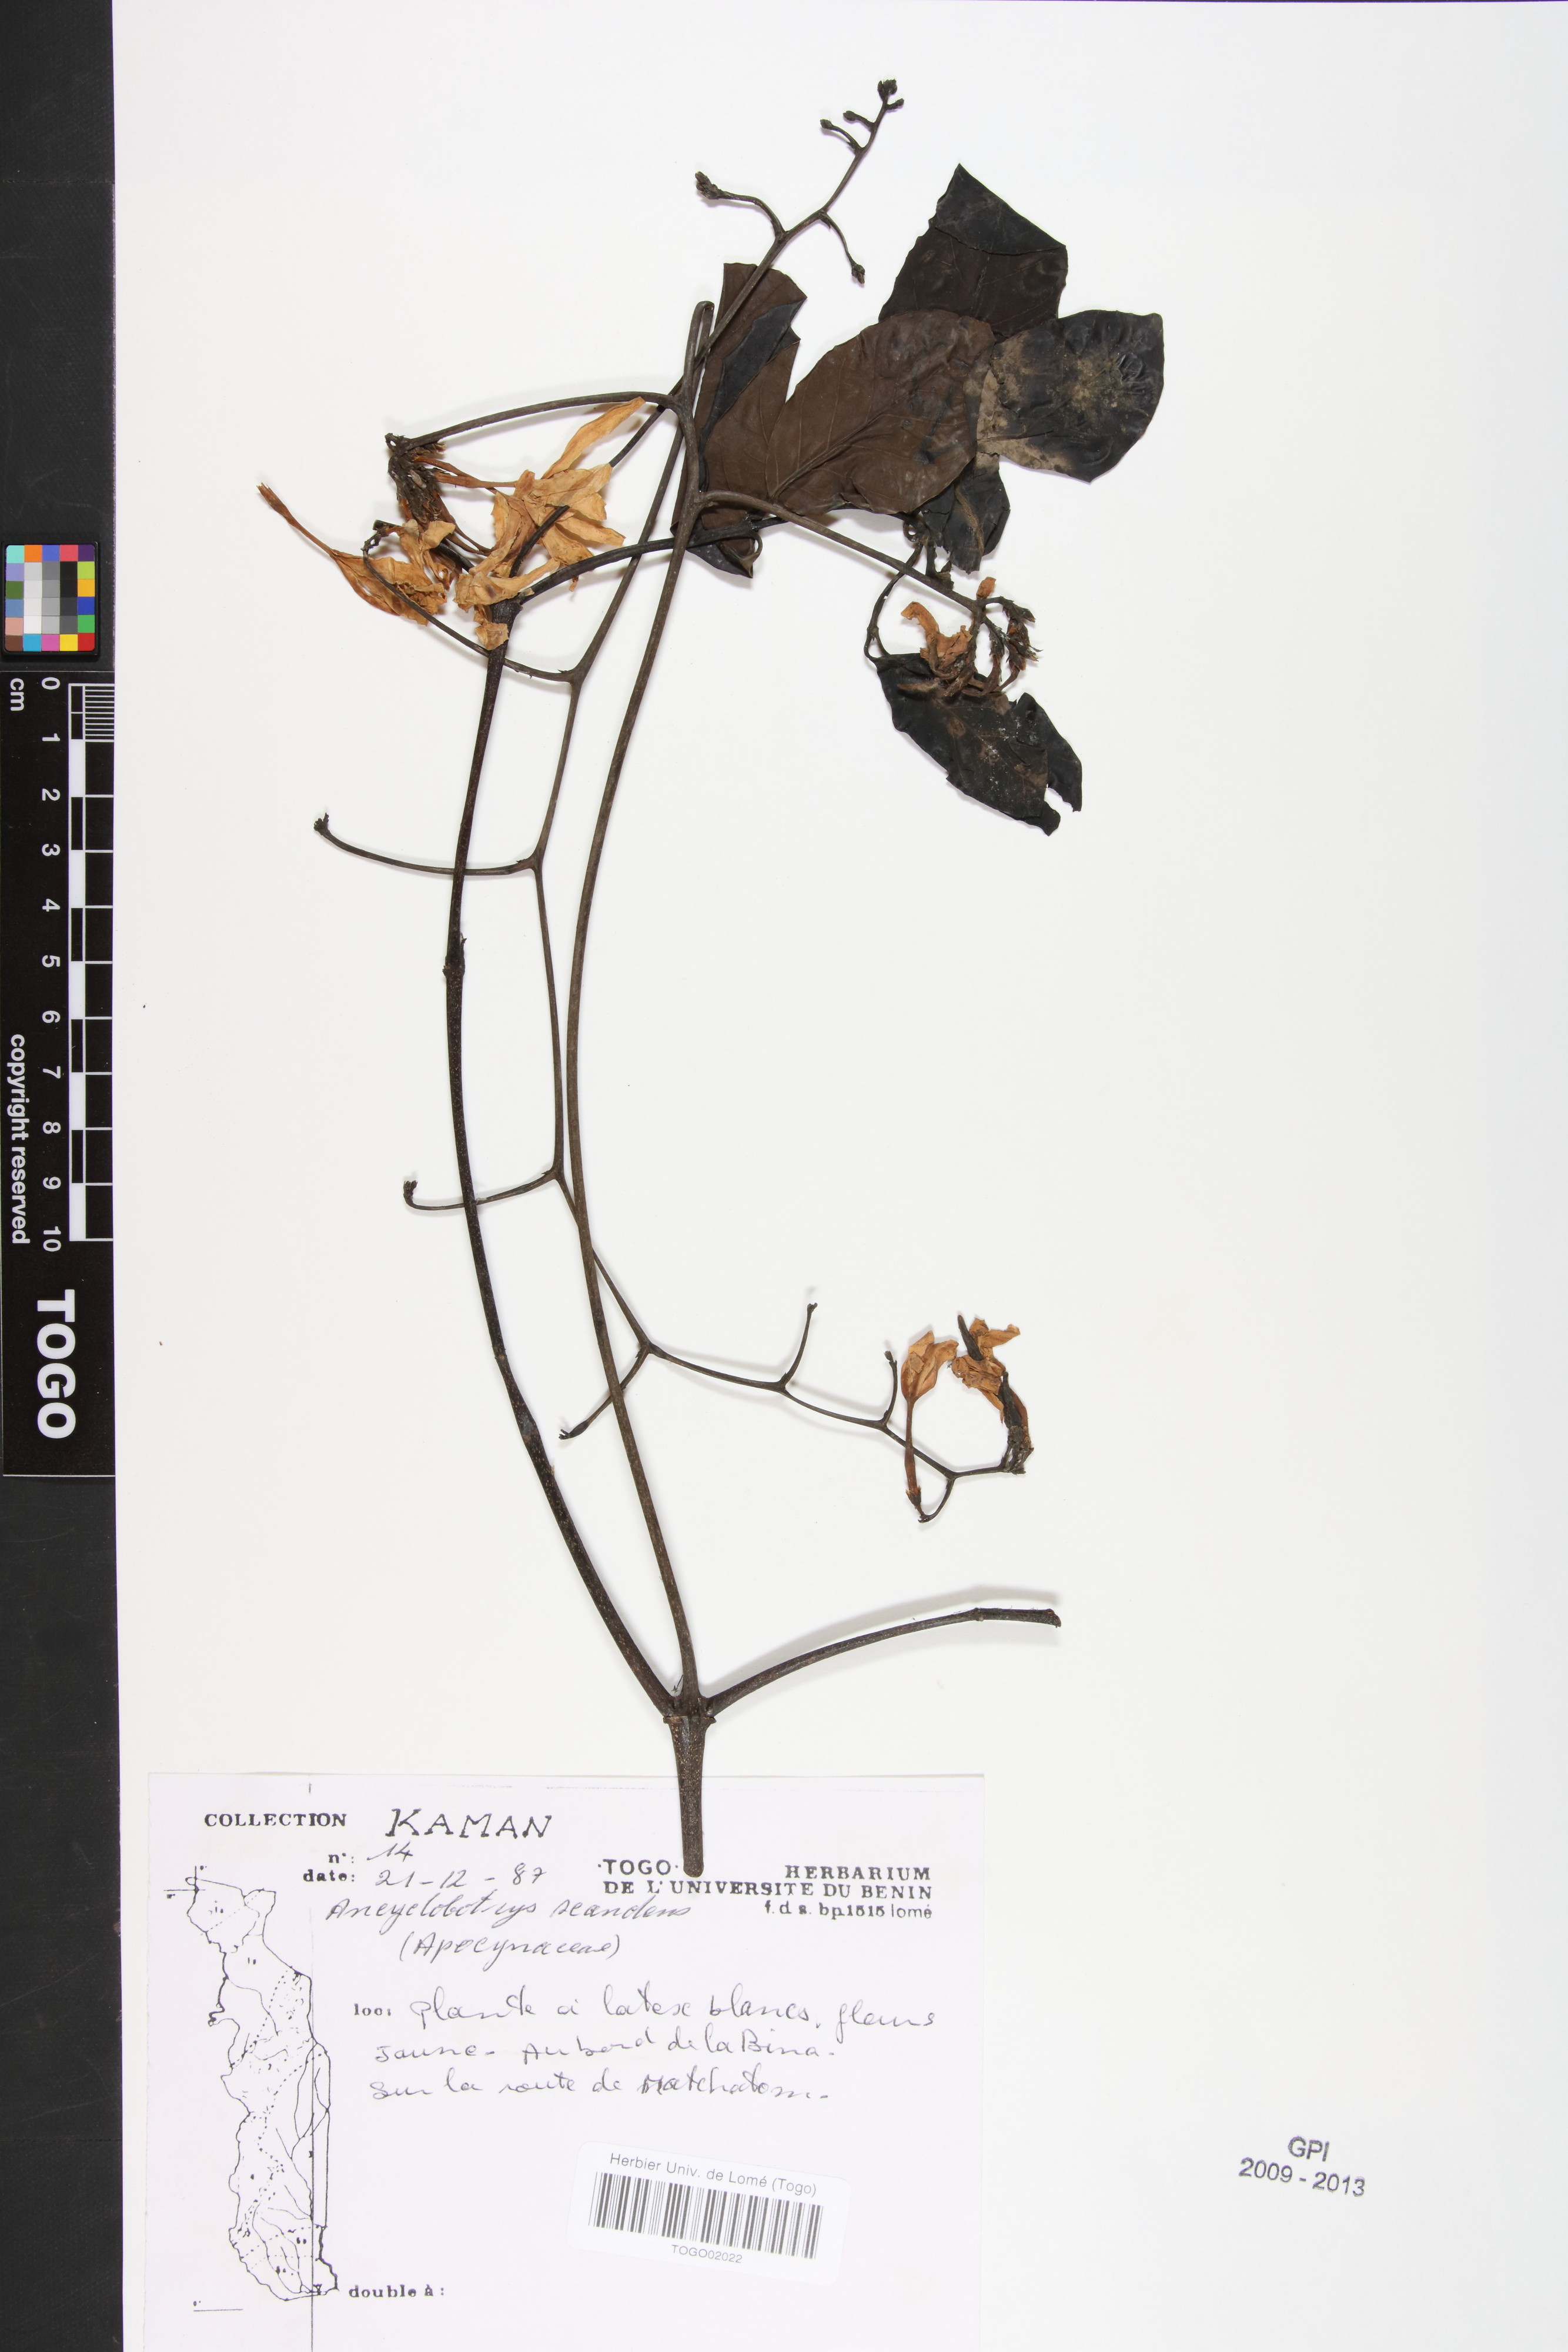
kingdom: Plantae
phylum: Tracheophyta
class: Magnoliopsida
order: Gentianales
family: Apocynaceae
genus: Ancylobothrys
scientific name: Ancylobothrys scandens
